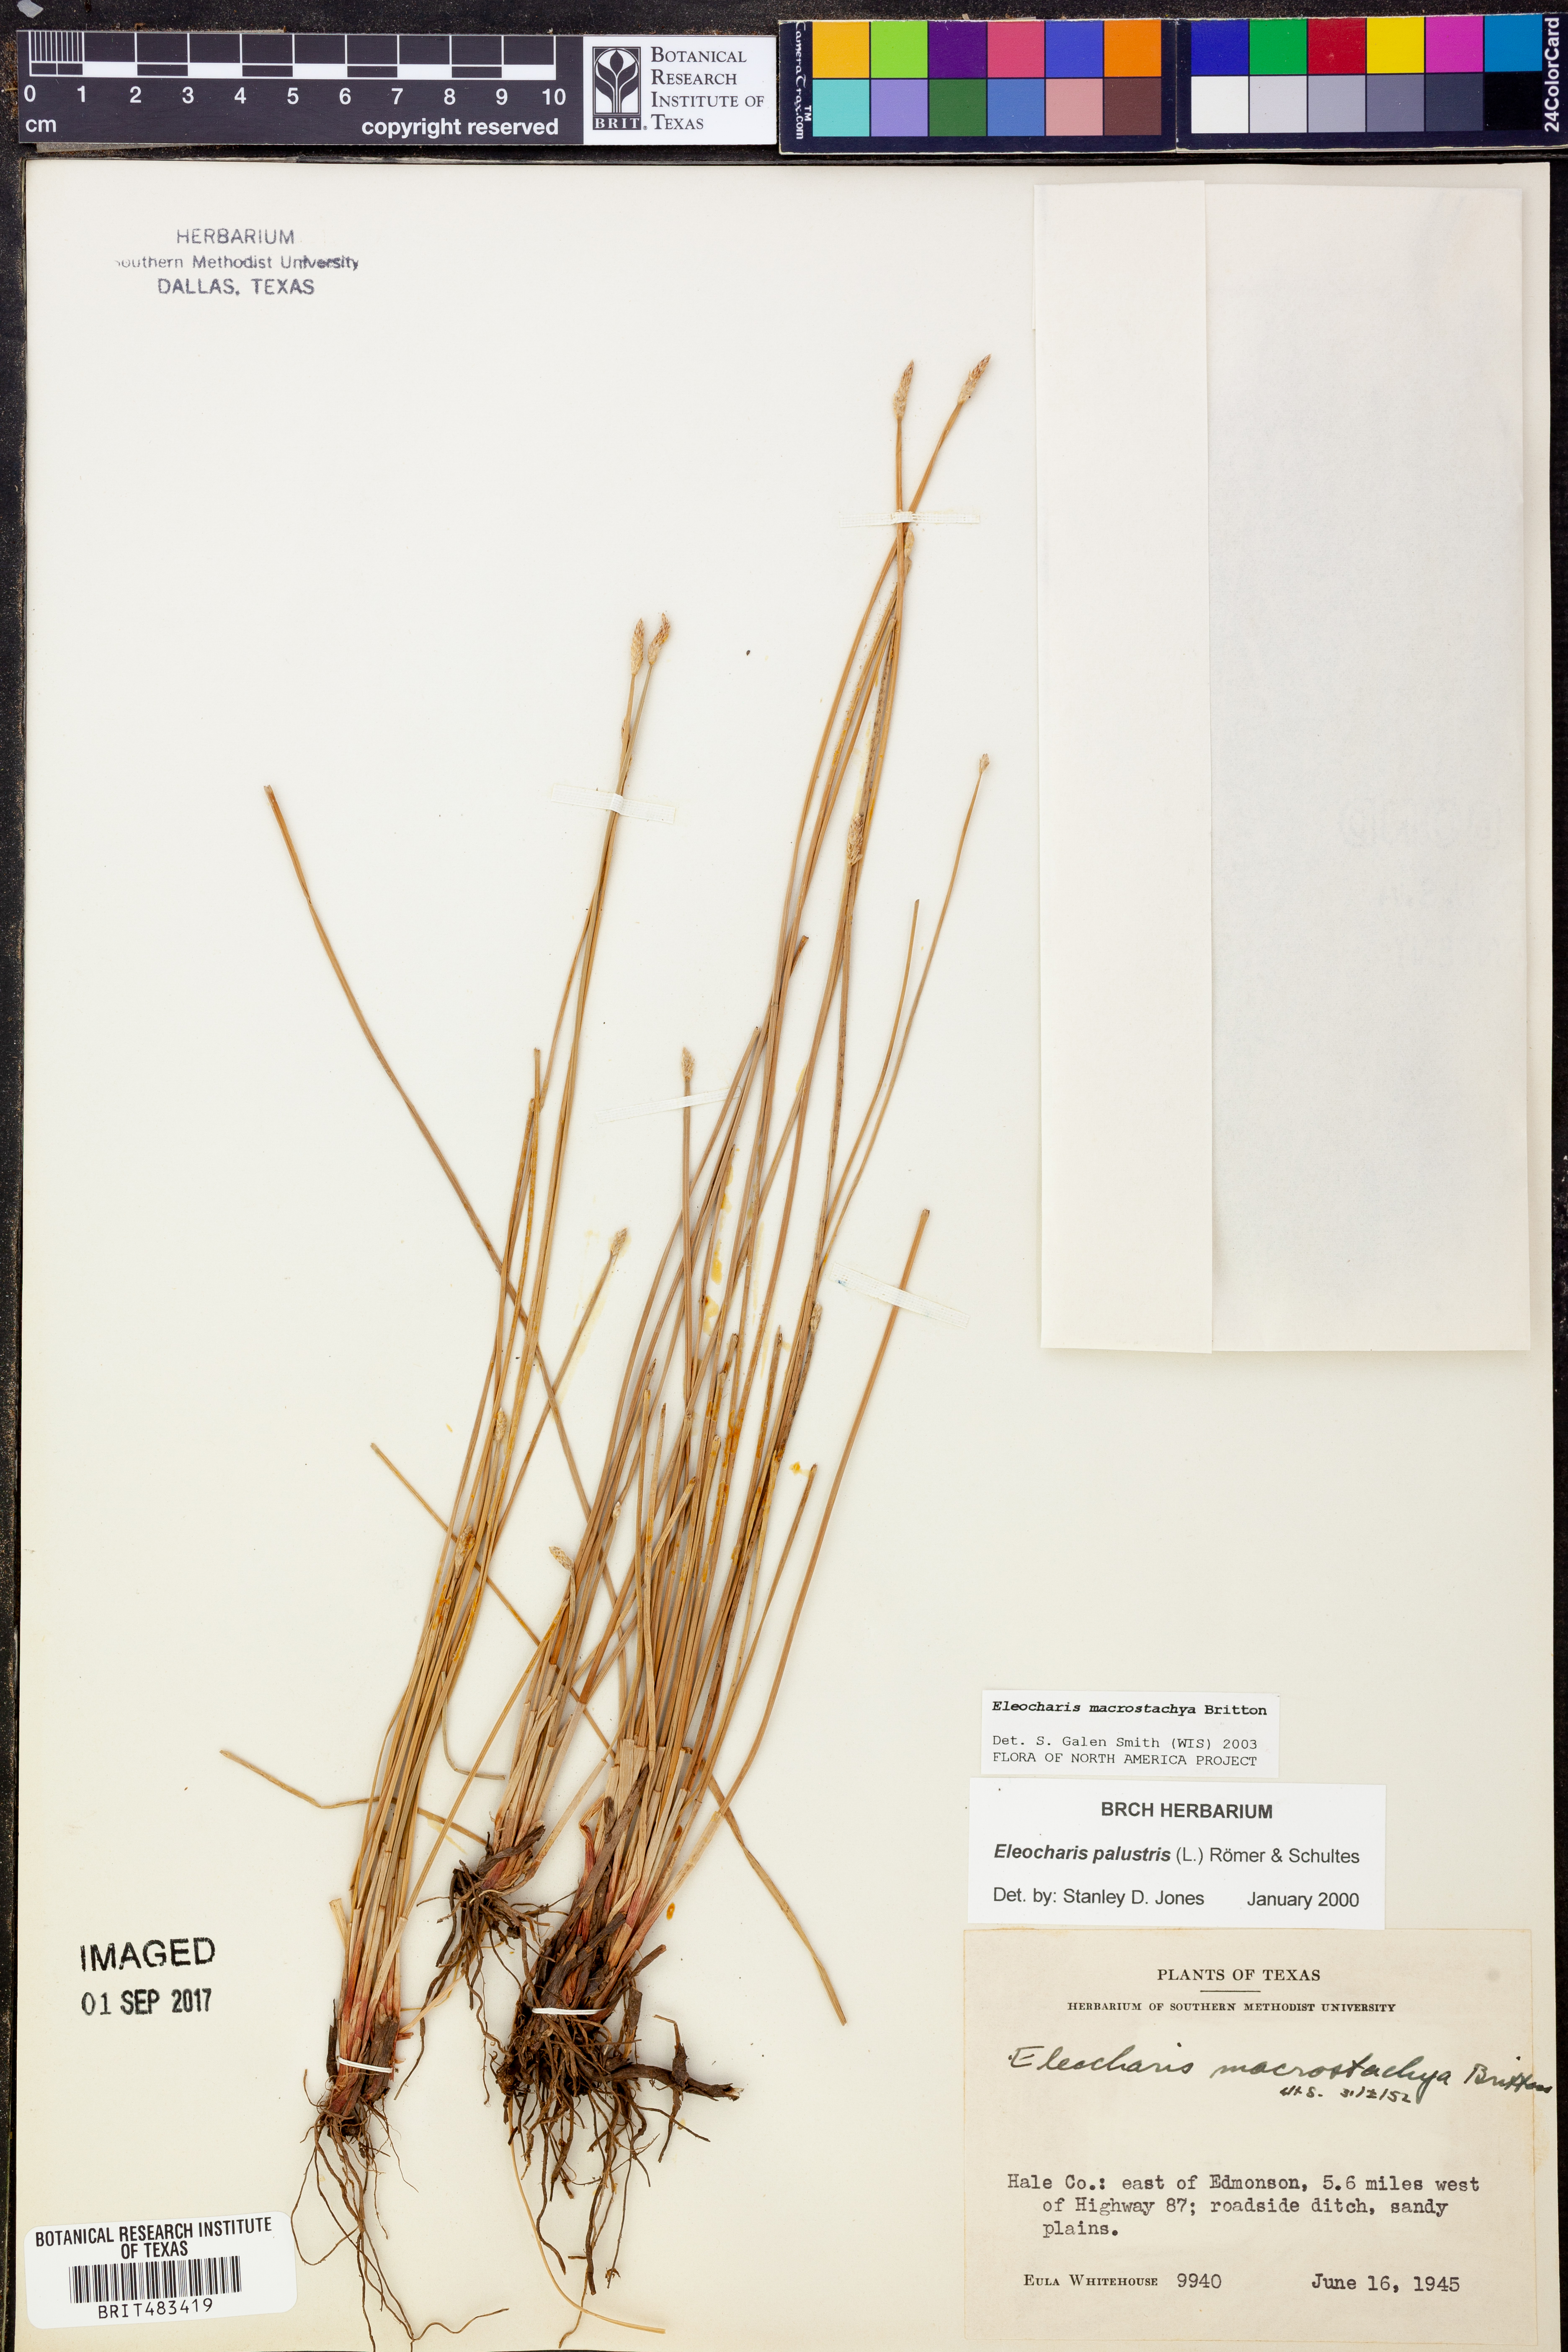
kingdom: Plantae
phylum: Tracheophyta
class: Liliopsida
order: Poales
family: Cyperaceae
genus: Eleocharis
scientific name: Eleocharis macrostachya
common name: Pale spikerush
